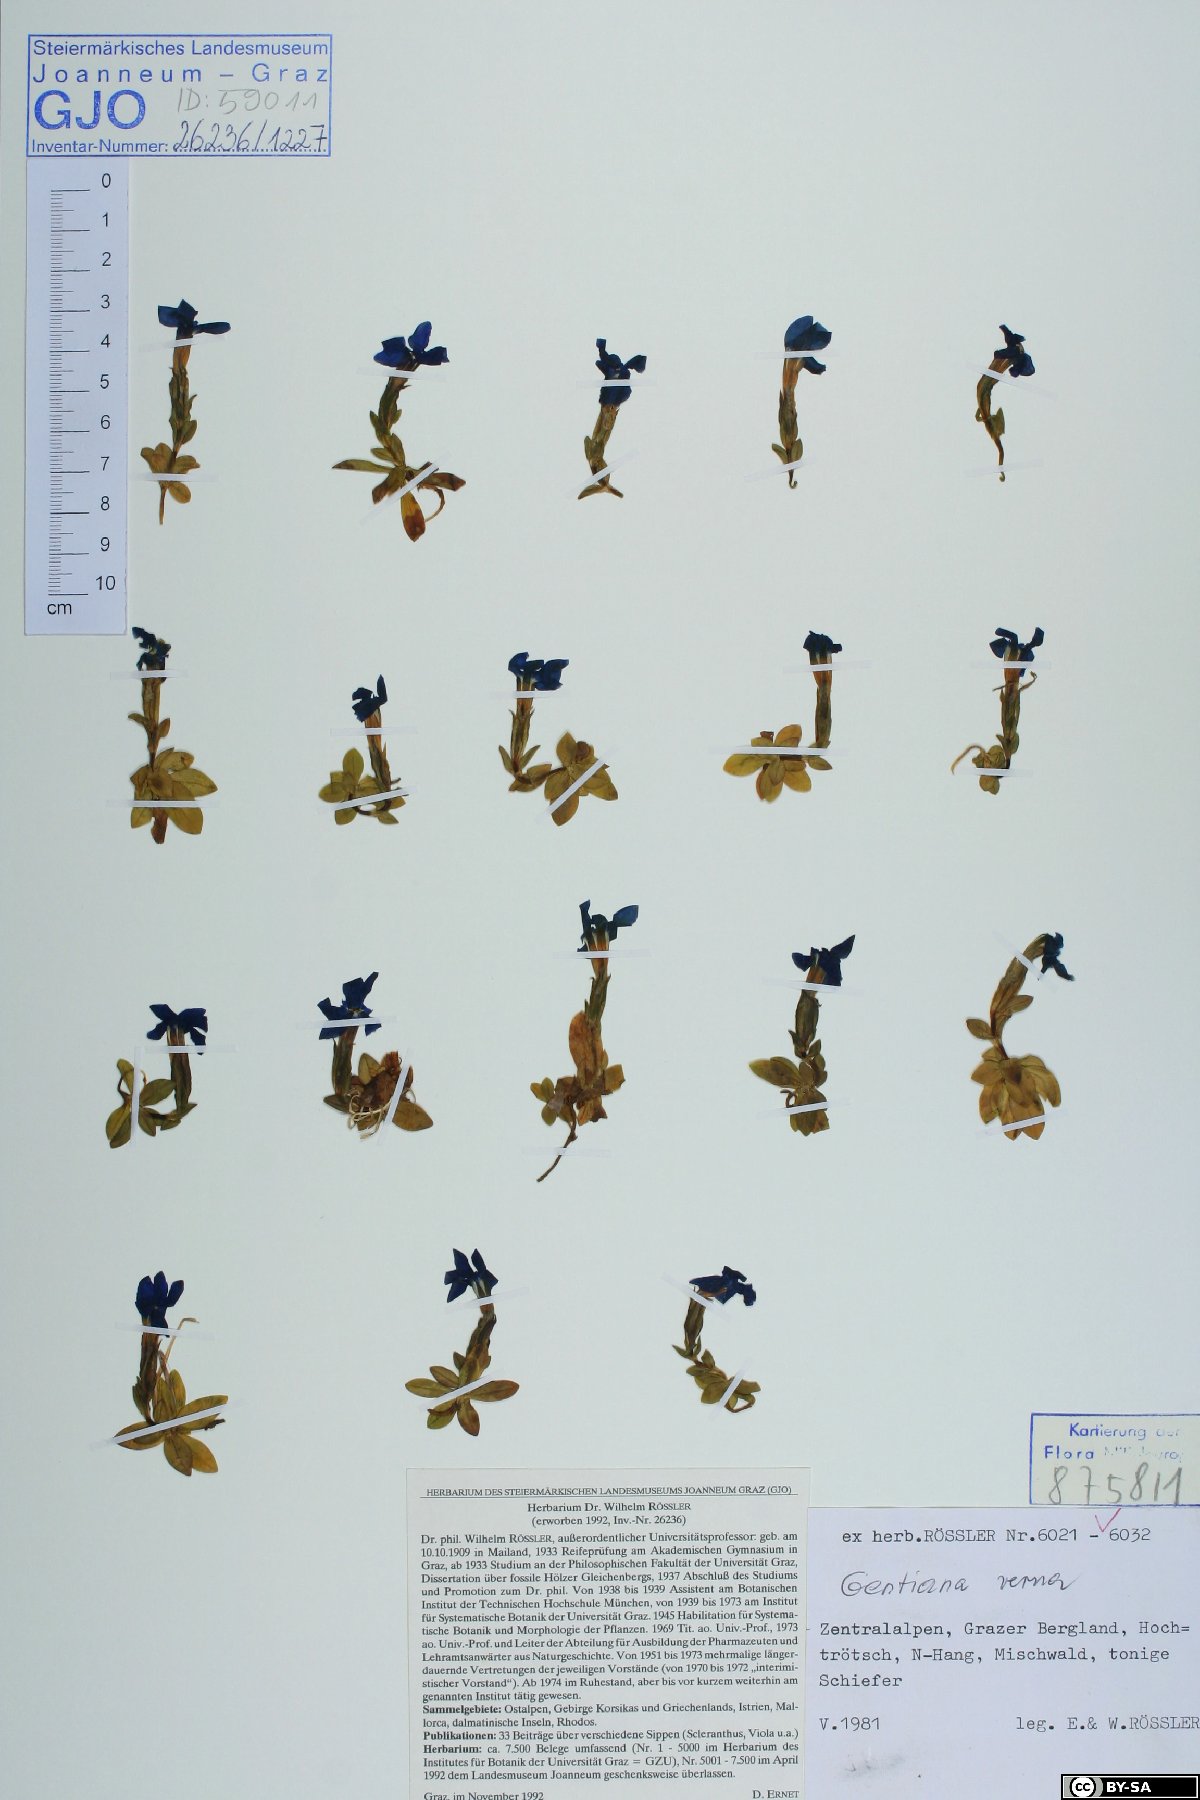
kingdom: Plantae
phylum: Tracheophyta
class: Magnoliopsida
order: Gentianales
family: Gentianaceae
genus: Gentiana
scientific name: Gentiana verna
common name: Spring gentian
